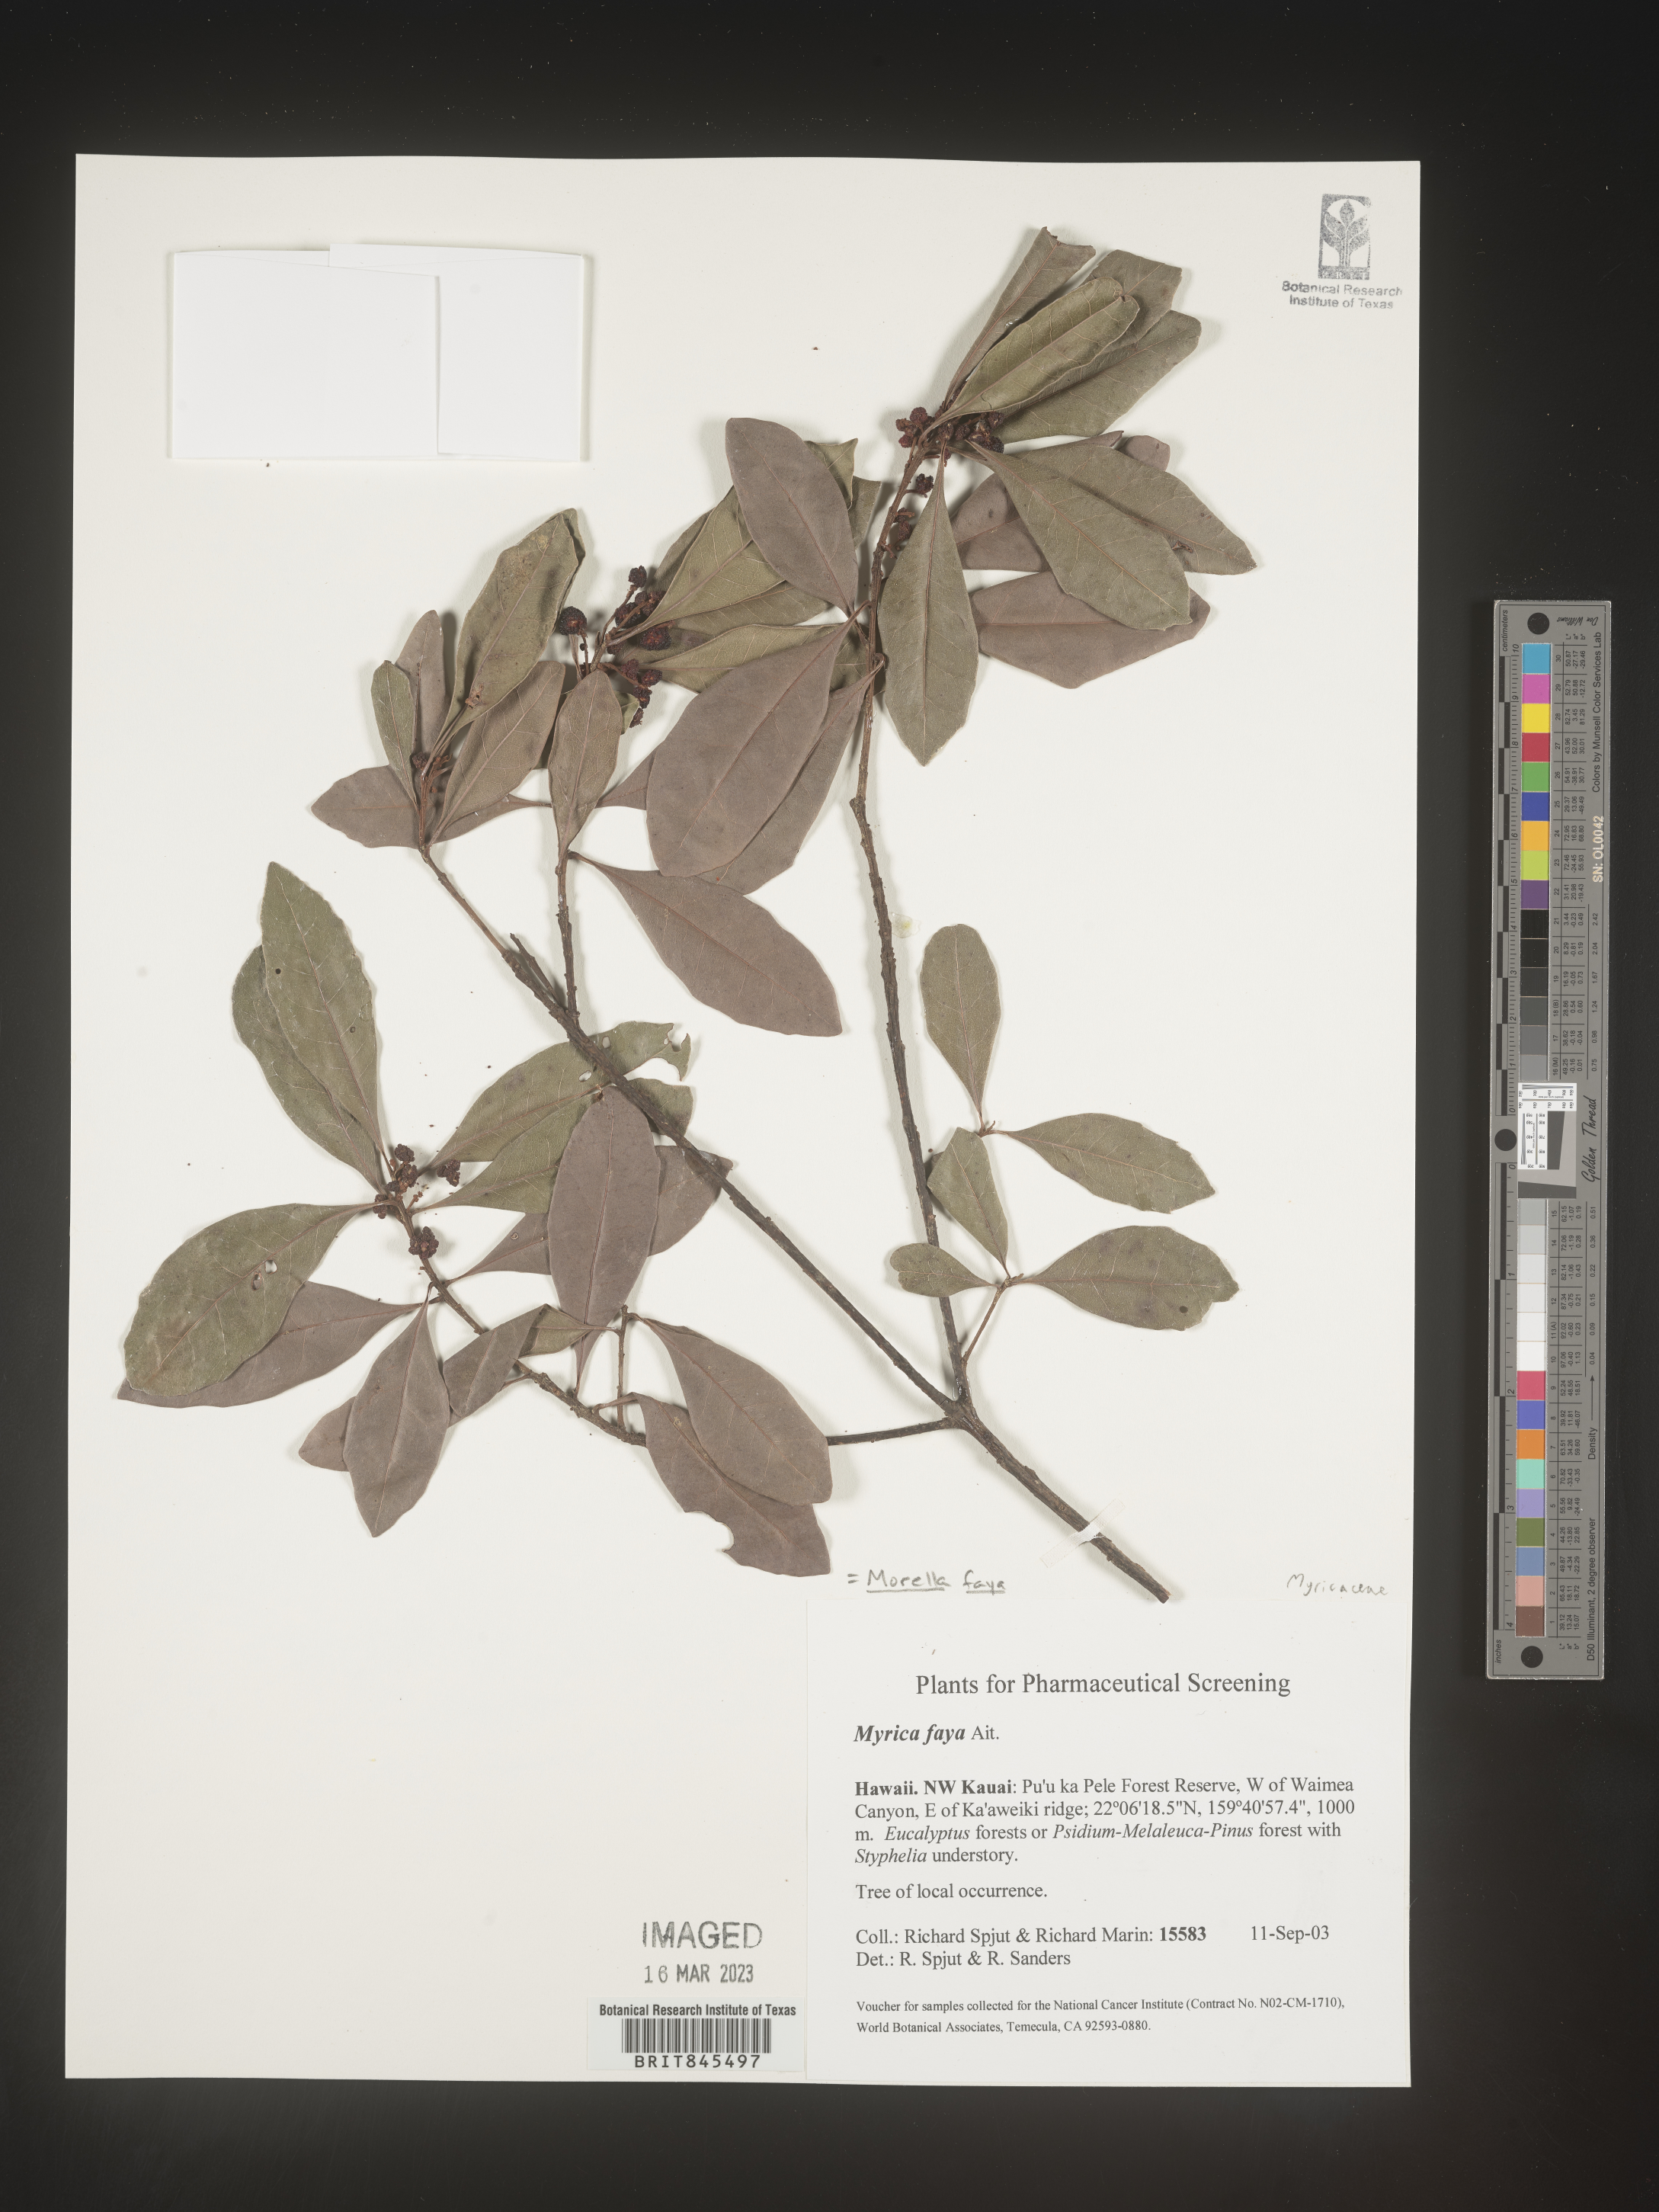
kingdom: Plantae
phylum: Tracheophyta
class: Magnoliopsida
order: Fagales
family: Myricaceae
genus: Myrica
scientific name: Myrica
